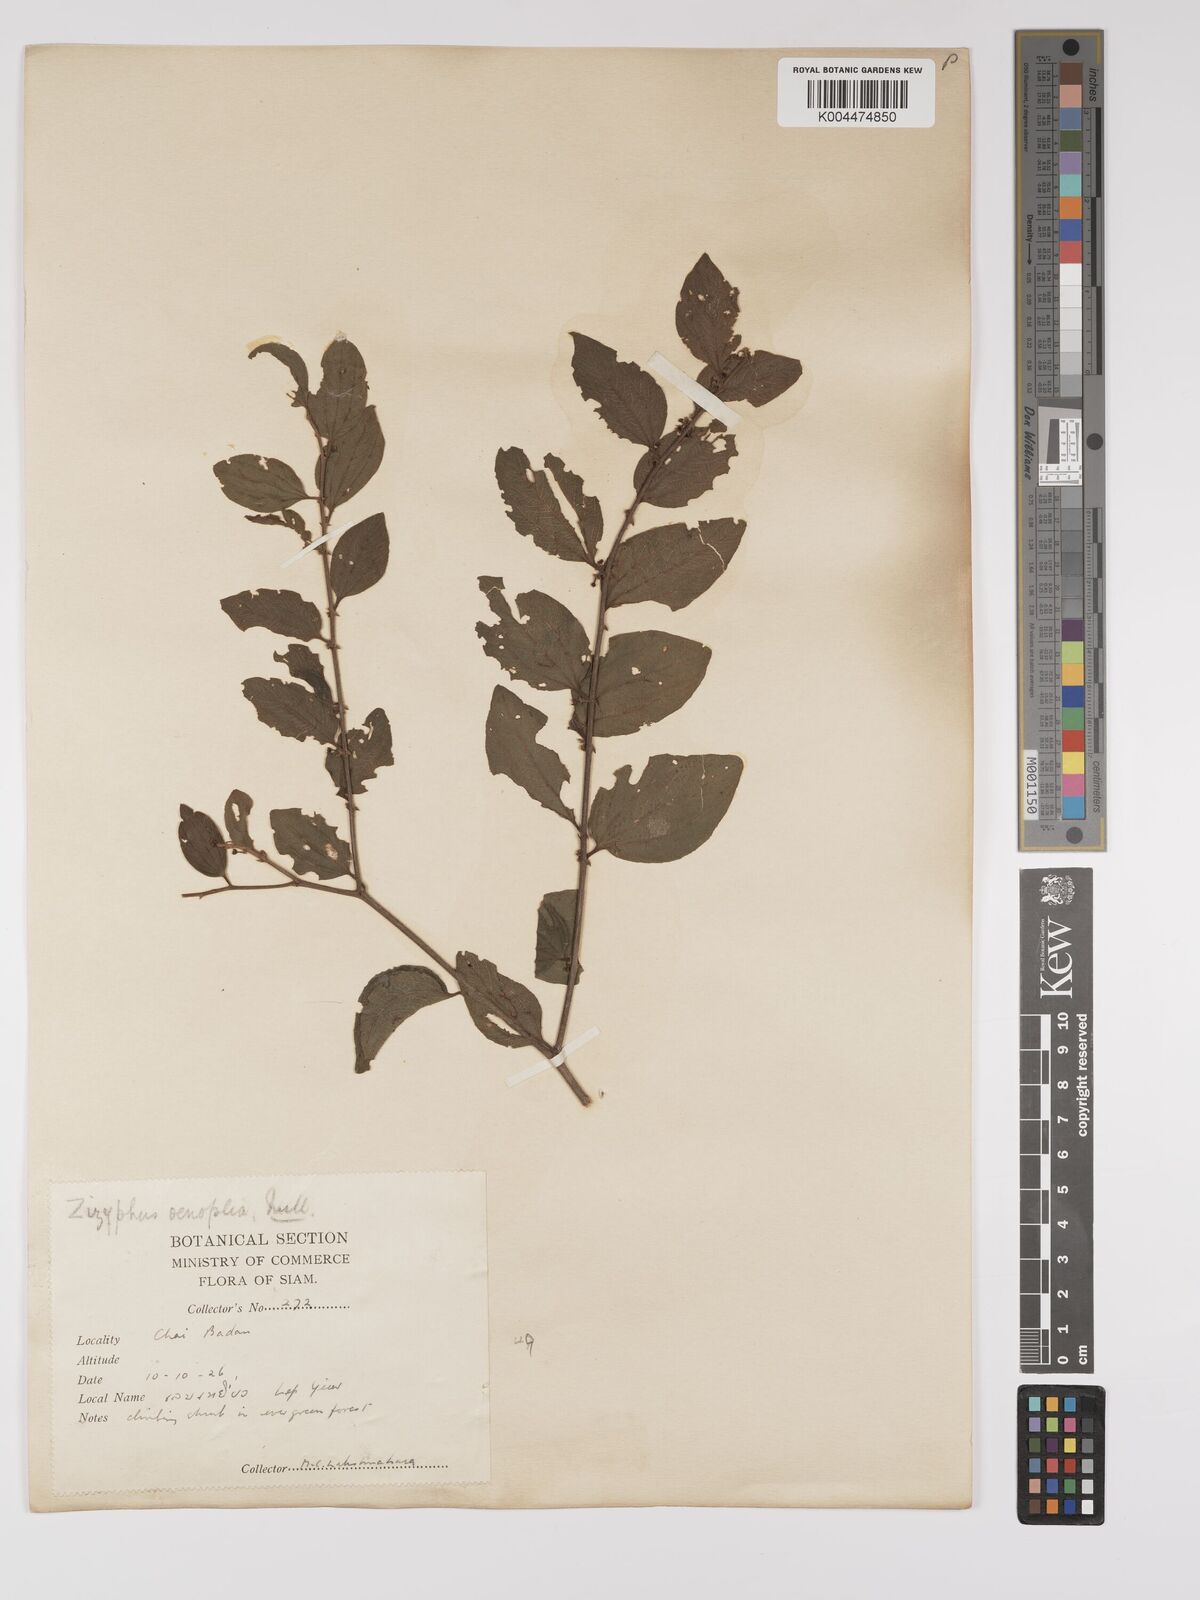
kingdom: Plantae
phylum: Tracheophyta
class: Magnoliopsida
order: Rosales
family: Rhamnaceae
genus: Ziziphus
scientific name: Ziziphus oenopolia
